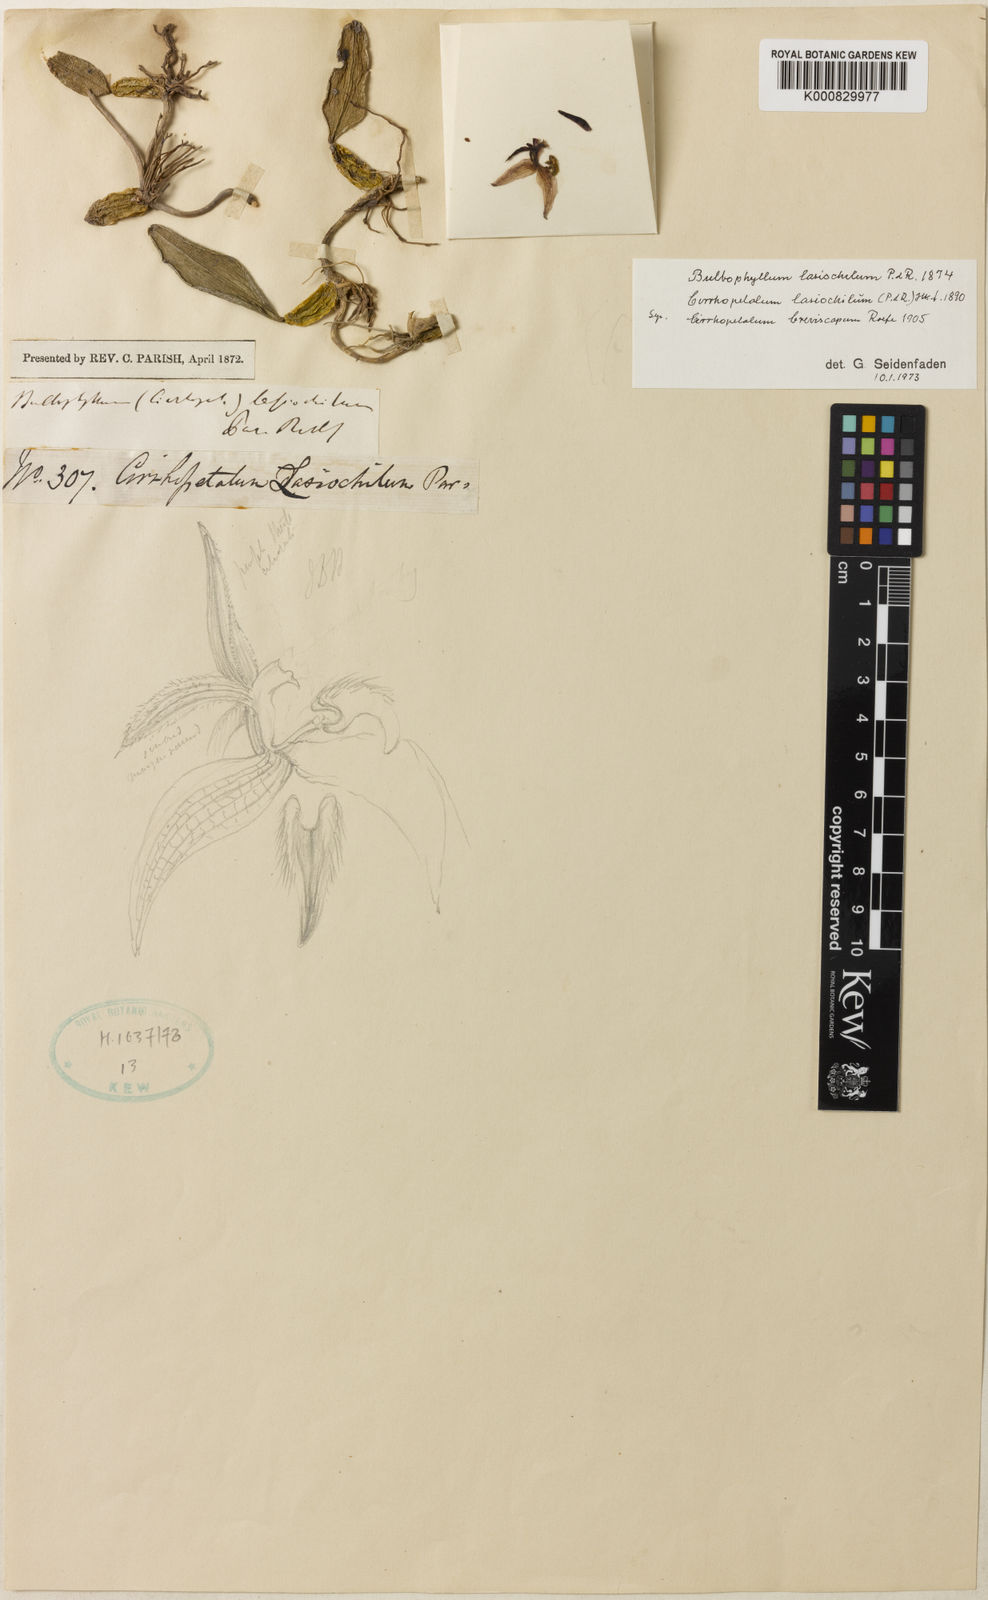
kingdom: Plantae
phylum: Tracheophyta
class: Liliopsida
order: Asparagales
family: Orchidaceae
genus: Bulbophyllum
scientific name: Bulbophyllum lasiochilum
